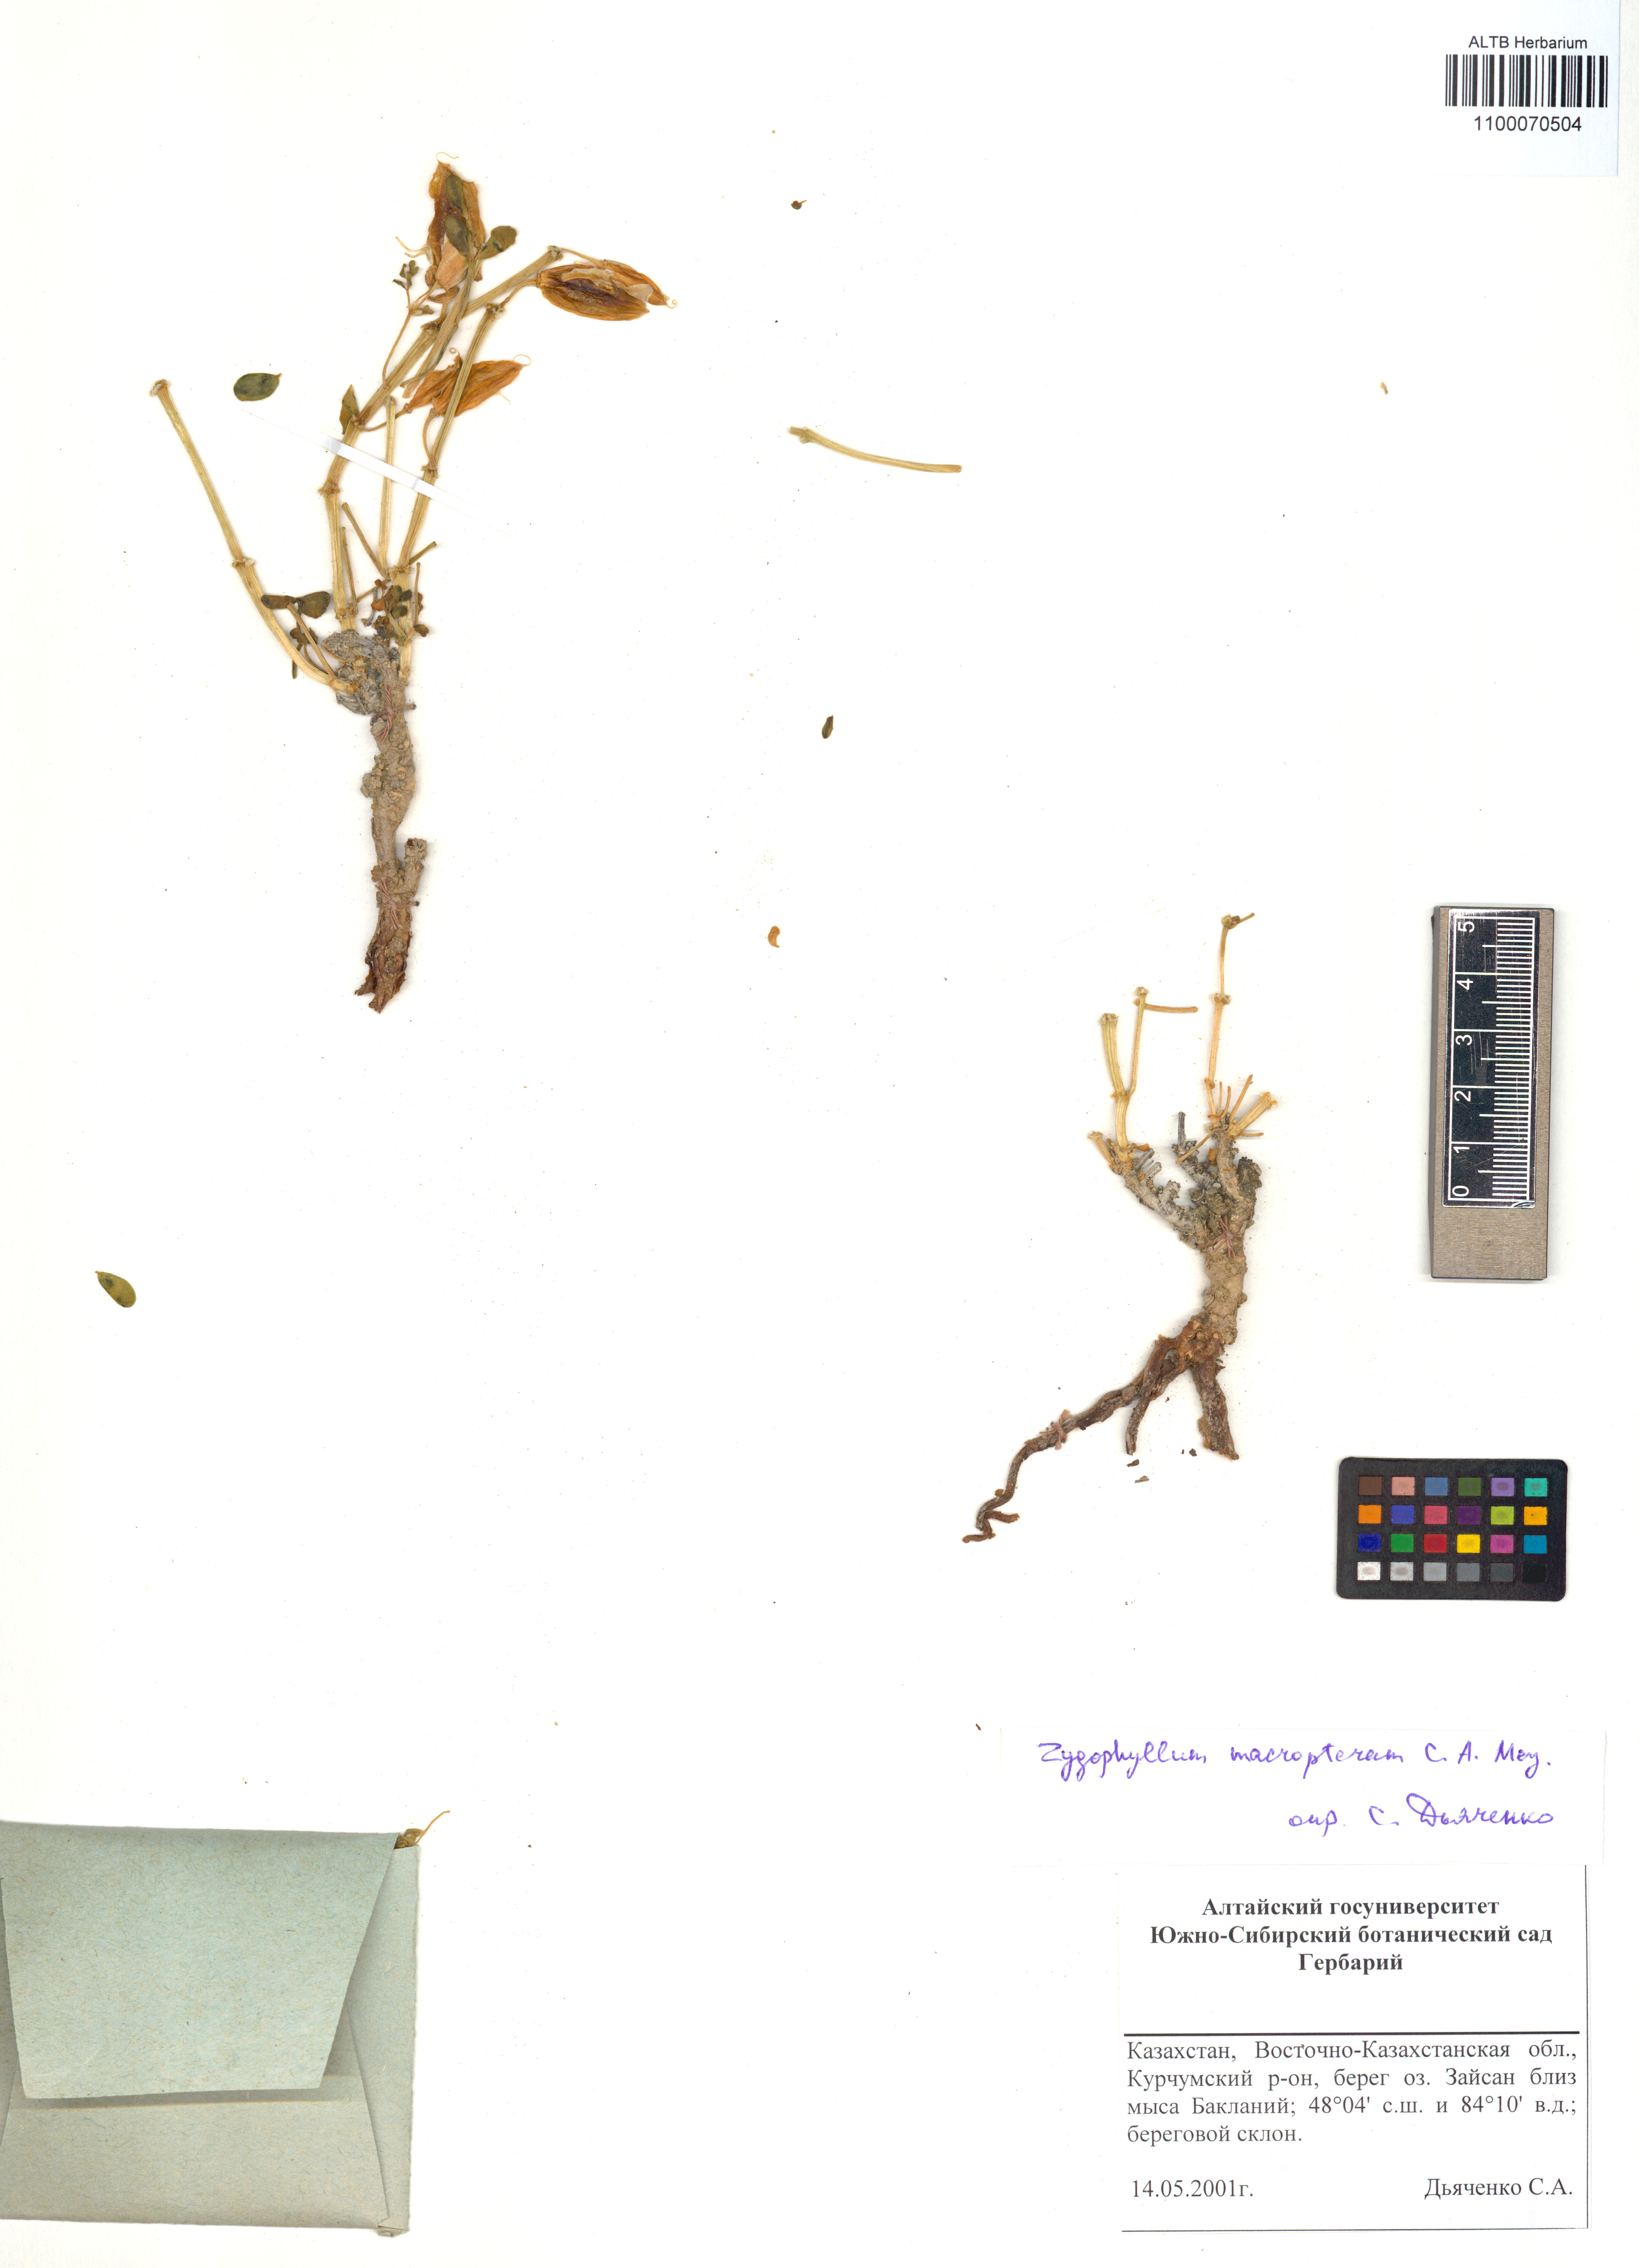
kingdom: Plantae
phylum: Tracheophyta
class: Magnoliopsida
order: Zygophyllales
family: Zygophyllaceae
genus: Zygophyllum
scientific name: Zygophyllum pinnatum
